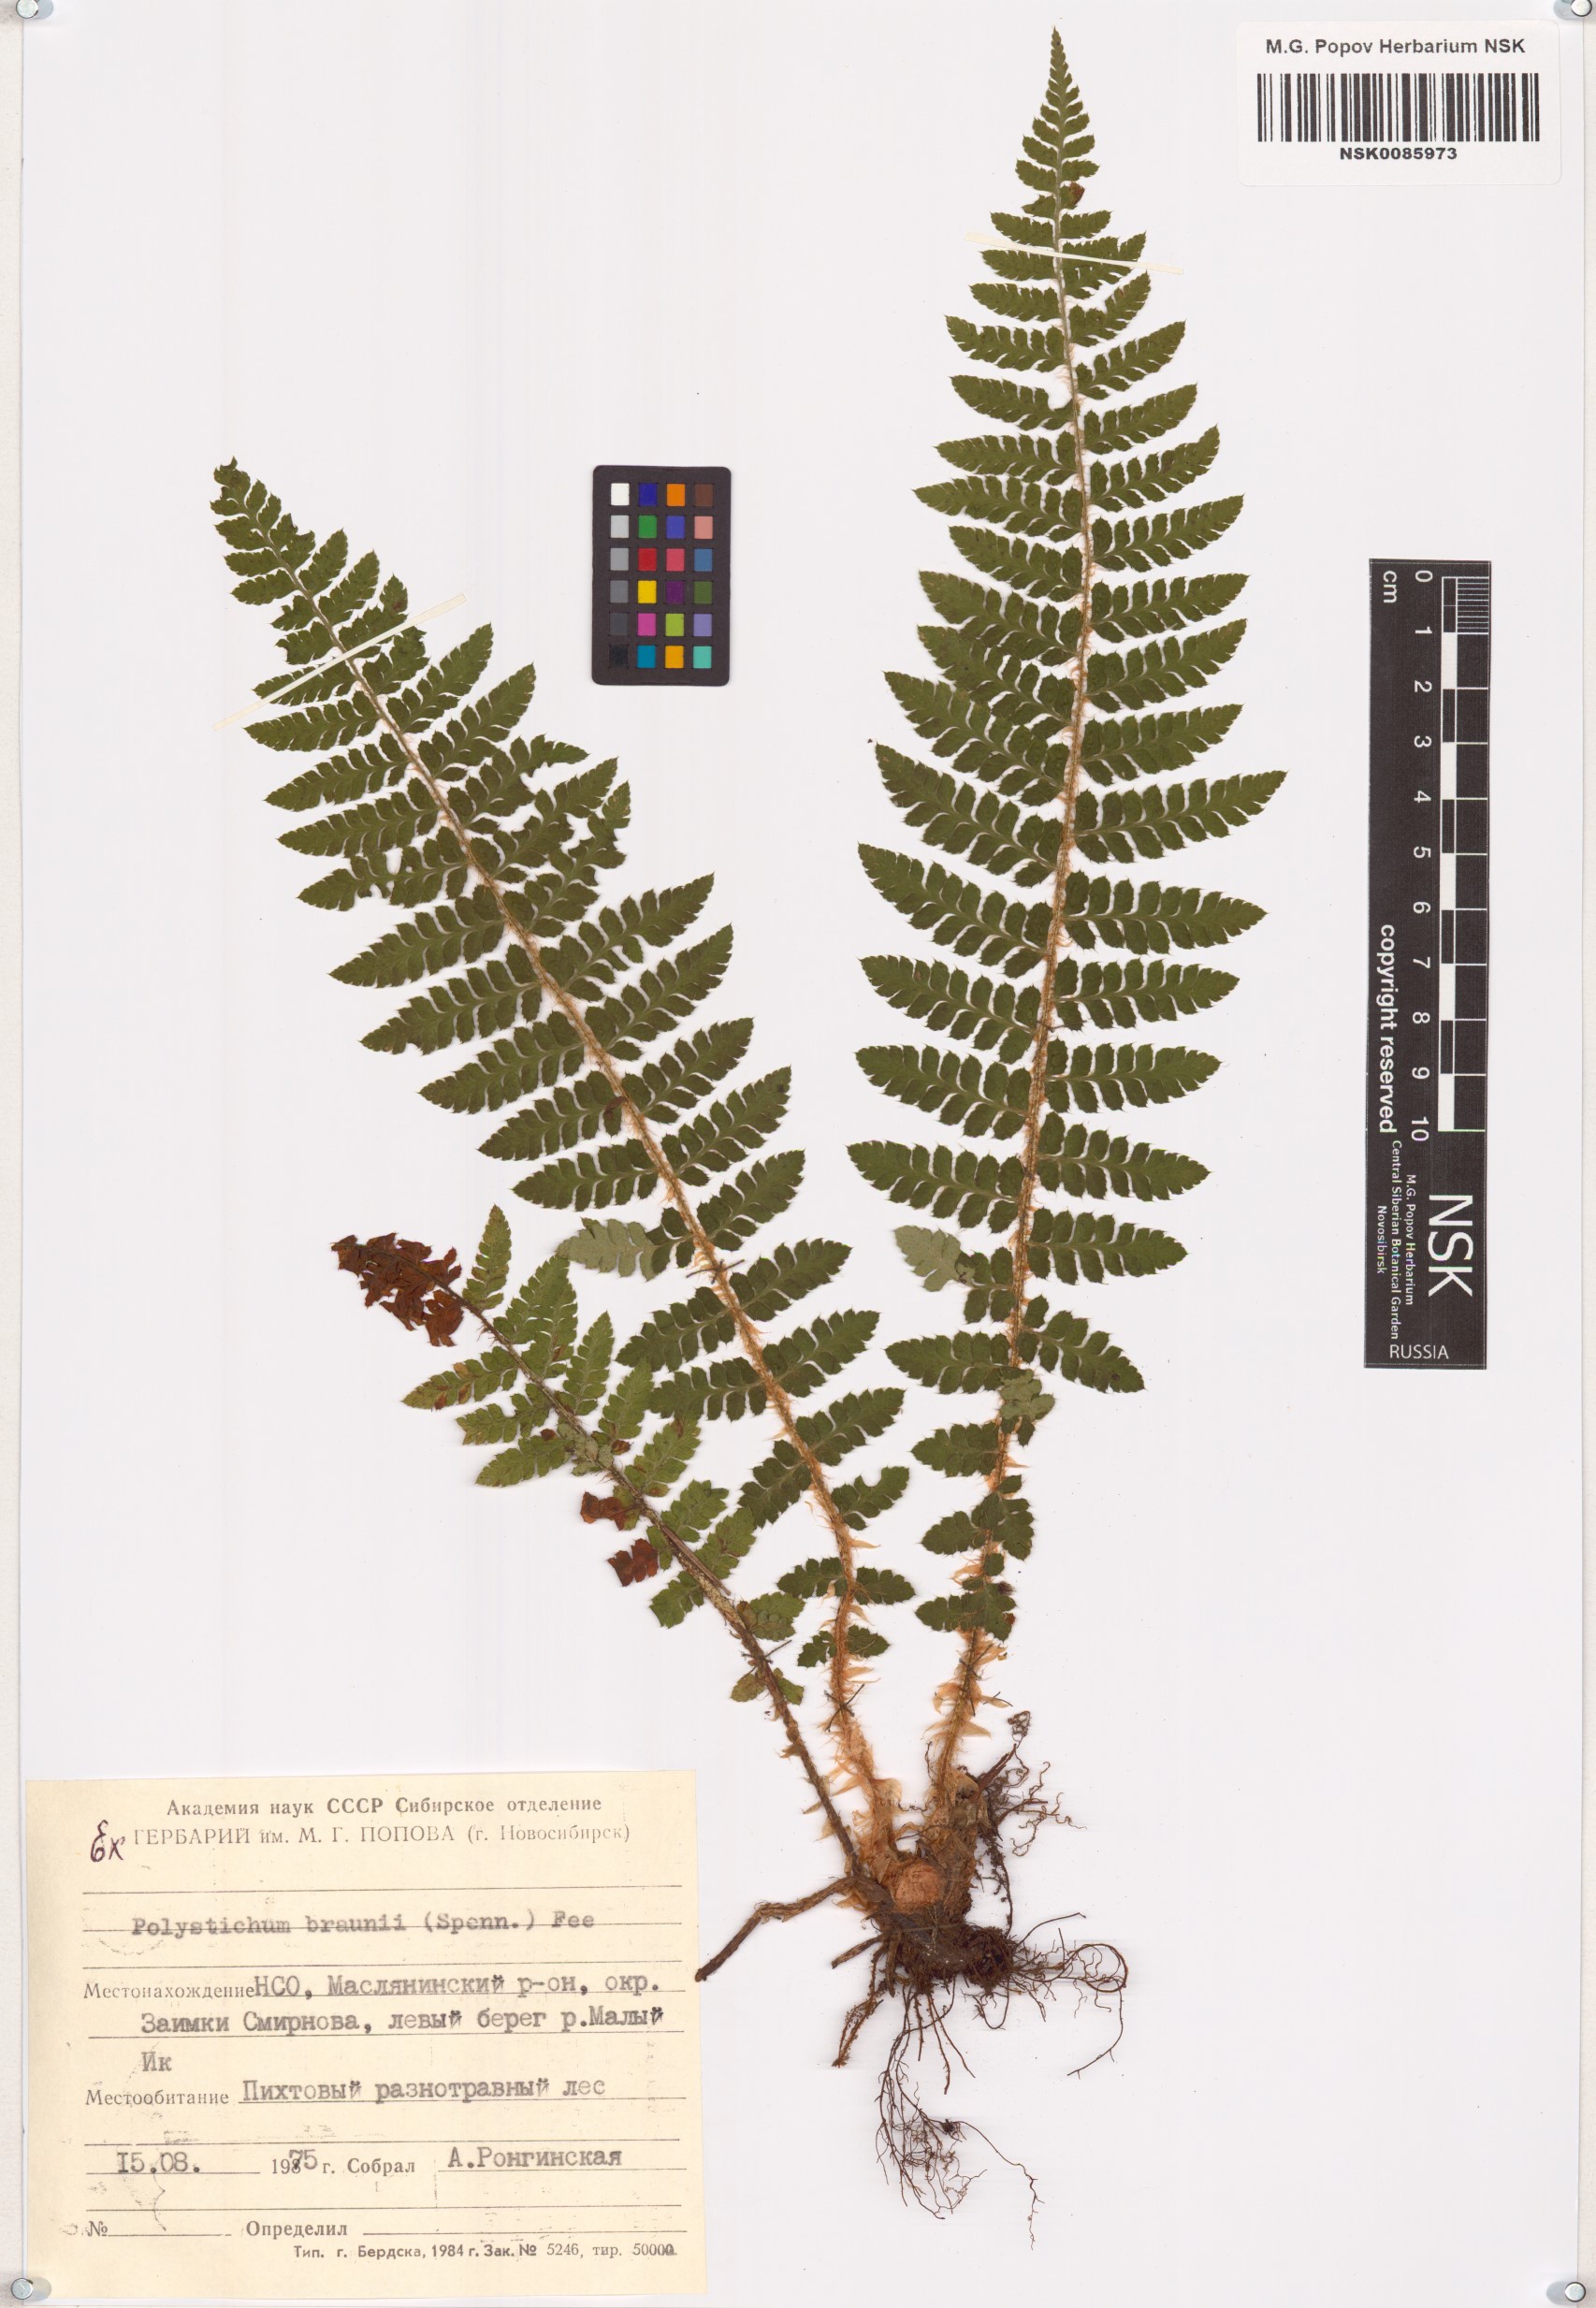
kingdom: Plantae
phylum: Tracheophyta
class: Polypodiopsida
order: Polypodiales
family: Dryopteridaceae
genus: Polystichum
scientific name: Polystichum braunii
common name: Braun's holly fern
